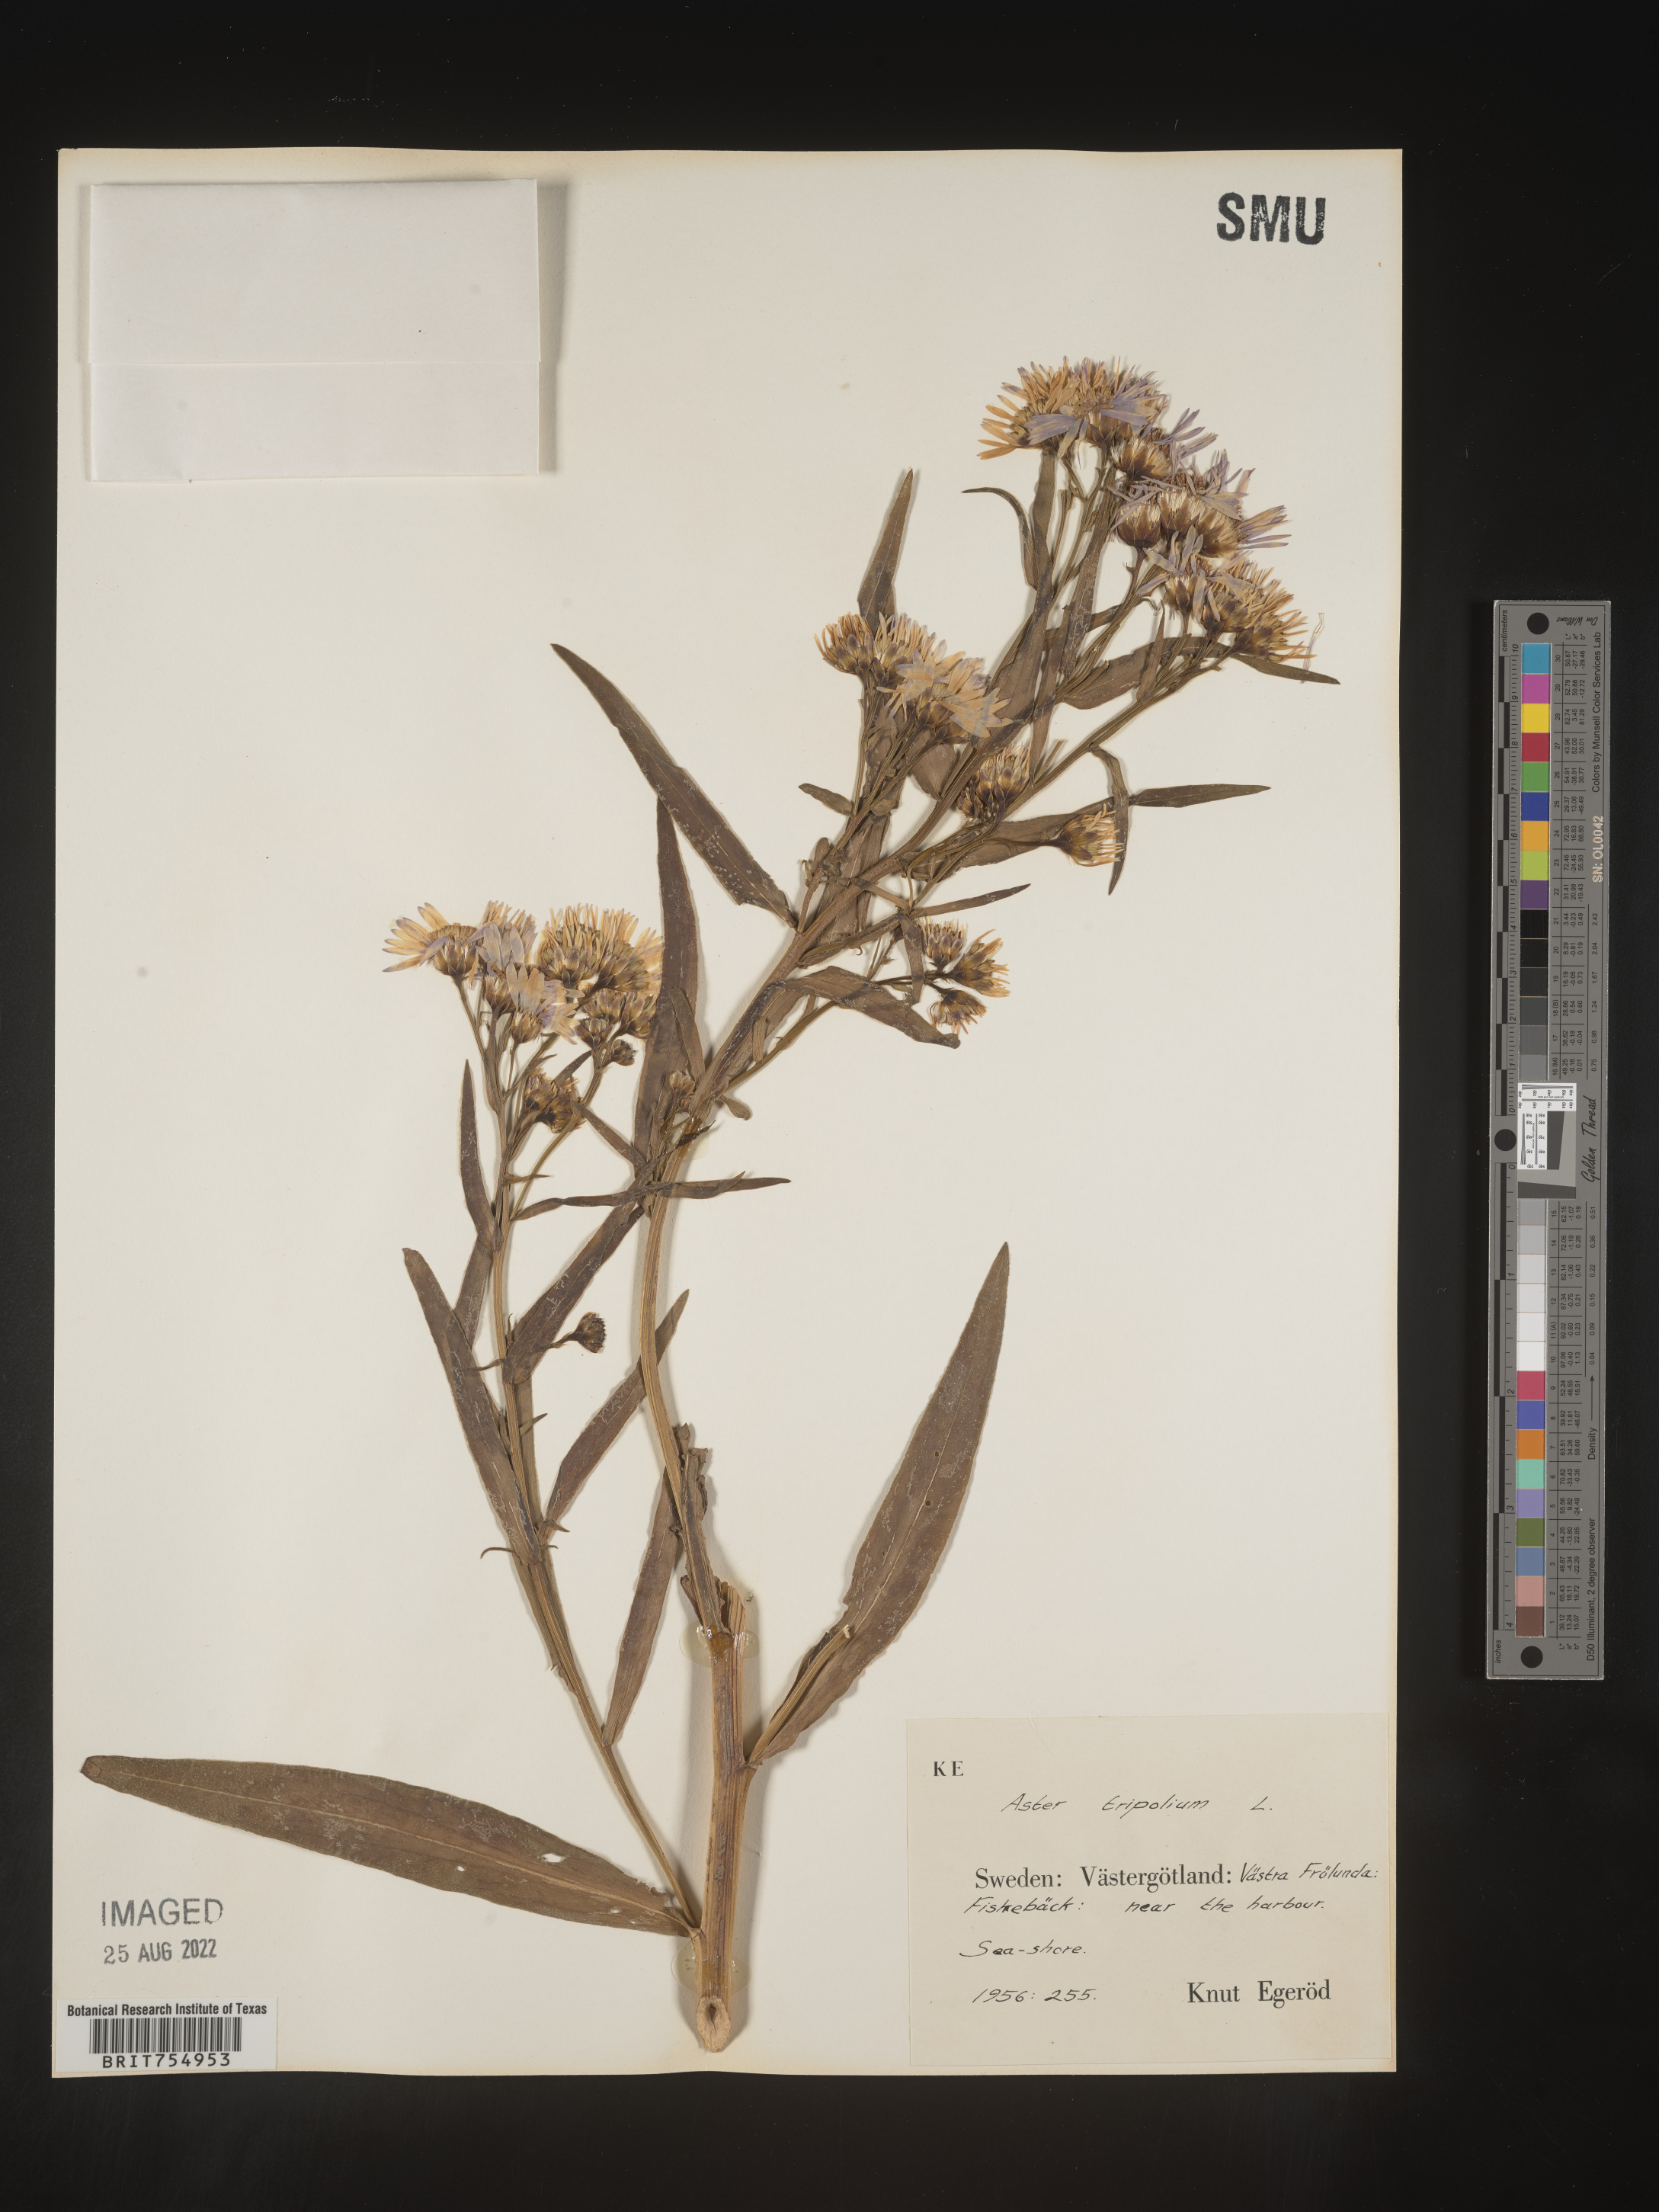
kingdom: Plantae
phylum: Tracheophyta
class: Magnoliopsida
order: Asterales
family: Asteraceae
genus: Symphyotrichum
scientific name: Symphyotrichum
